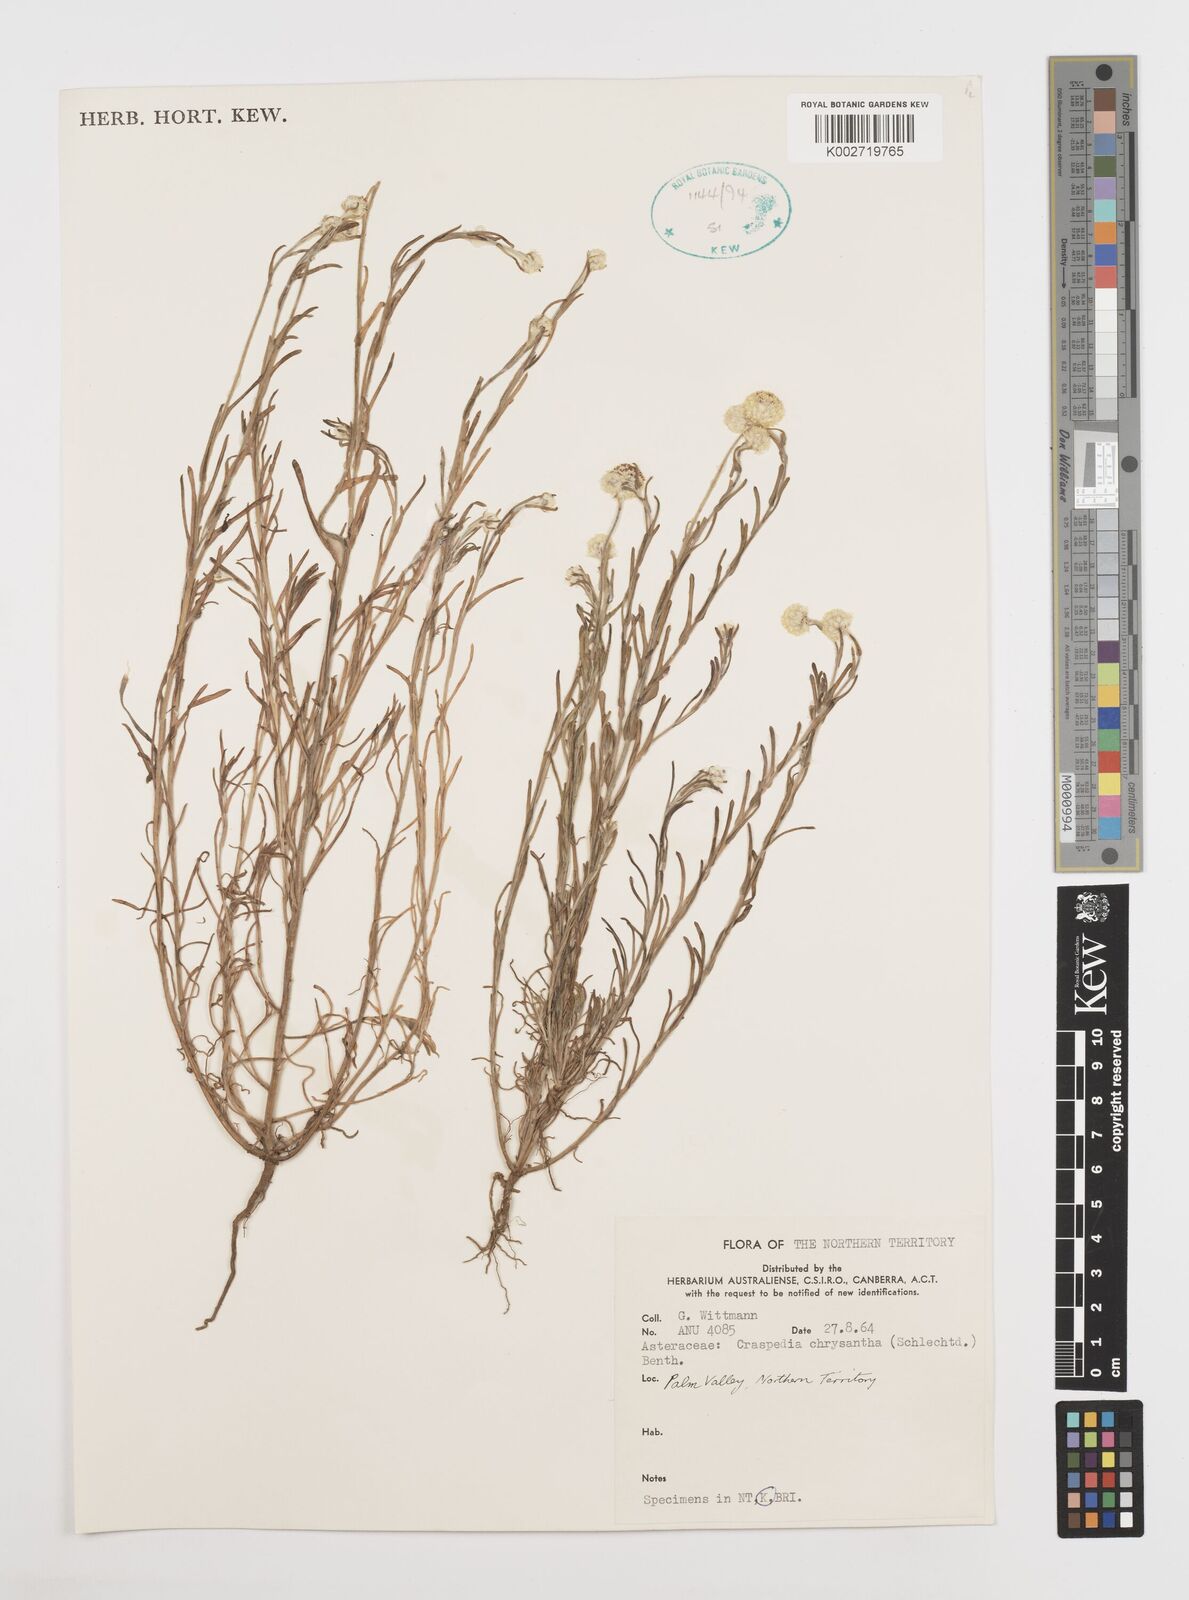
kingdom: Plantae
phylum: Tracheophyta
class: Magnoliopsida
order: Asterales
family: Asteraceae
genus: Pycnosorus
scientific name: Pycnosorus chrysanthus
